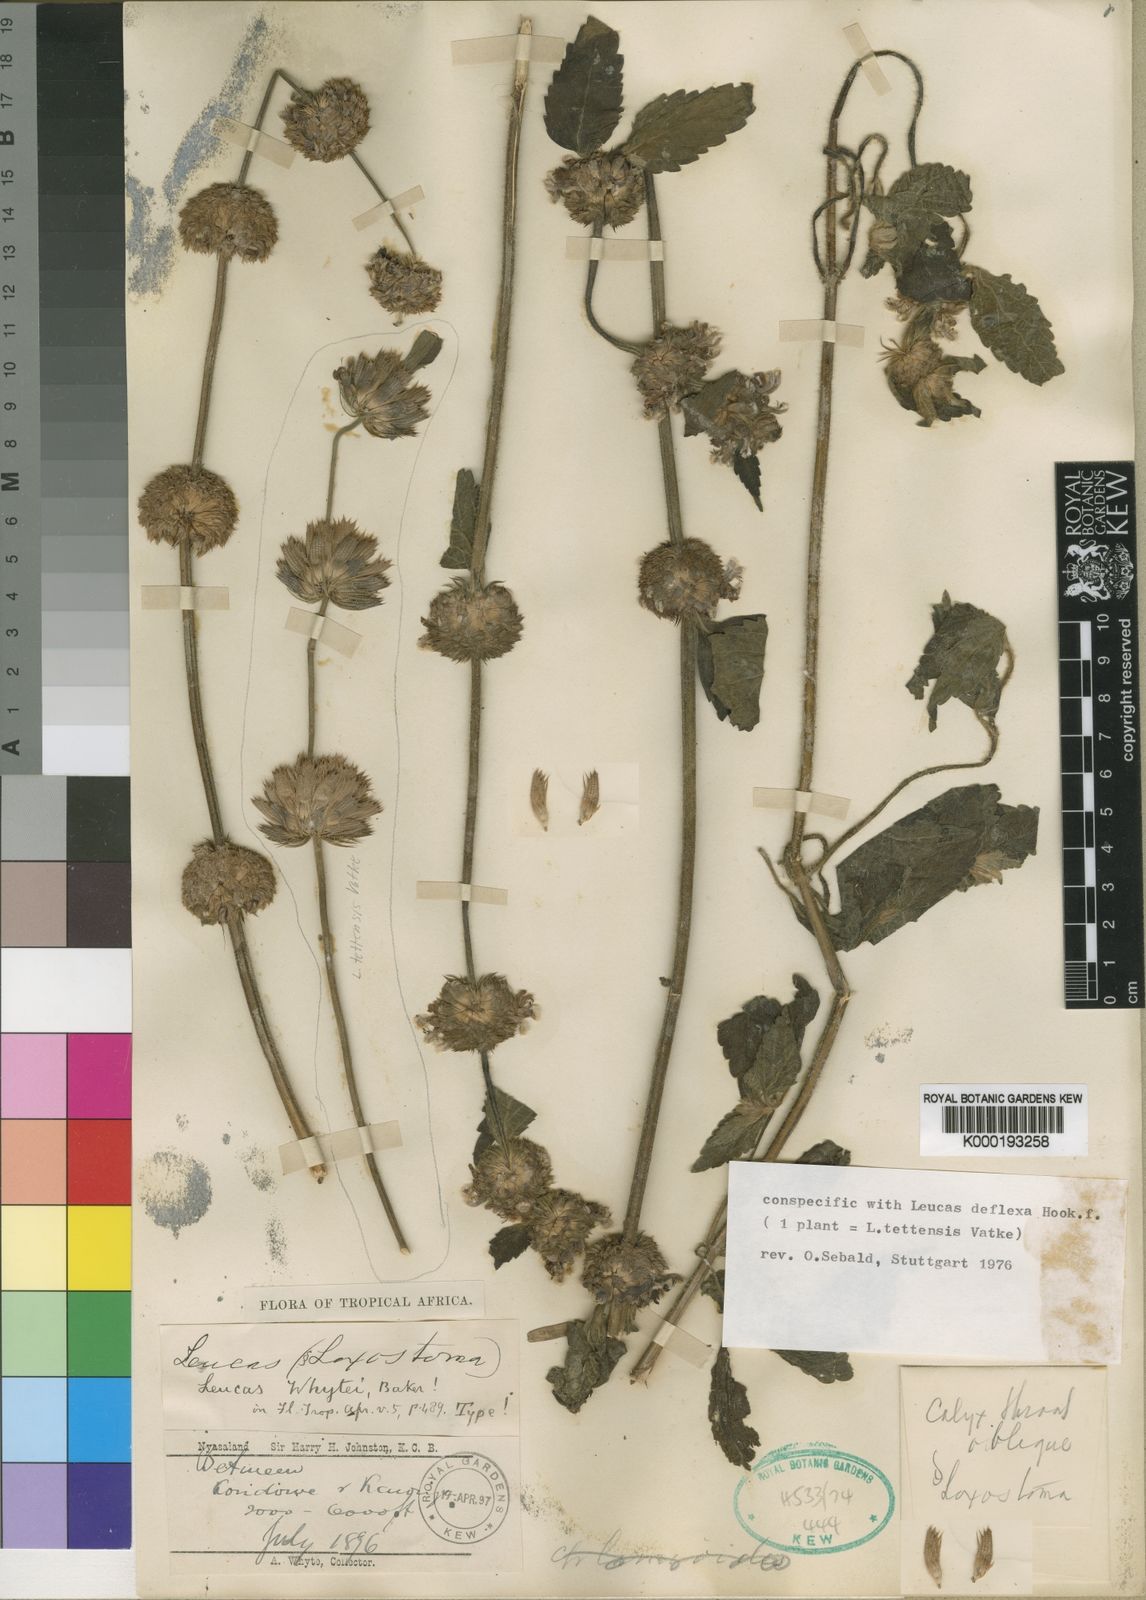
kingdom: Plantae
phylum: Tracheophyta
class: Magnoliopsida
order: Lamiales
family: Lamiaceae
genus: Leucas
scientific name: Leucas deflexa
